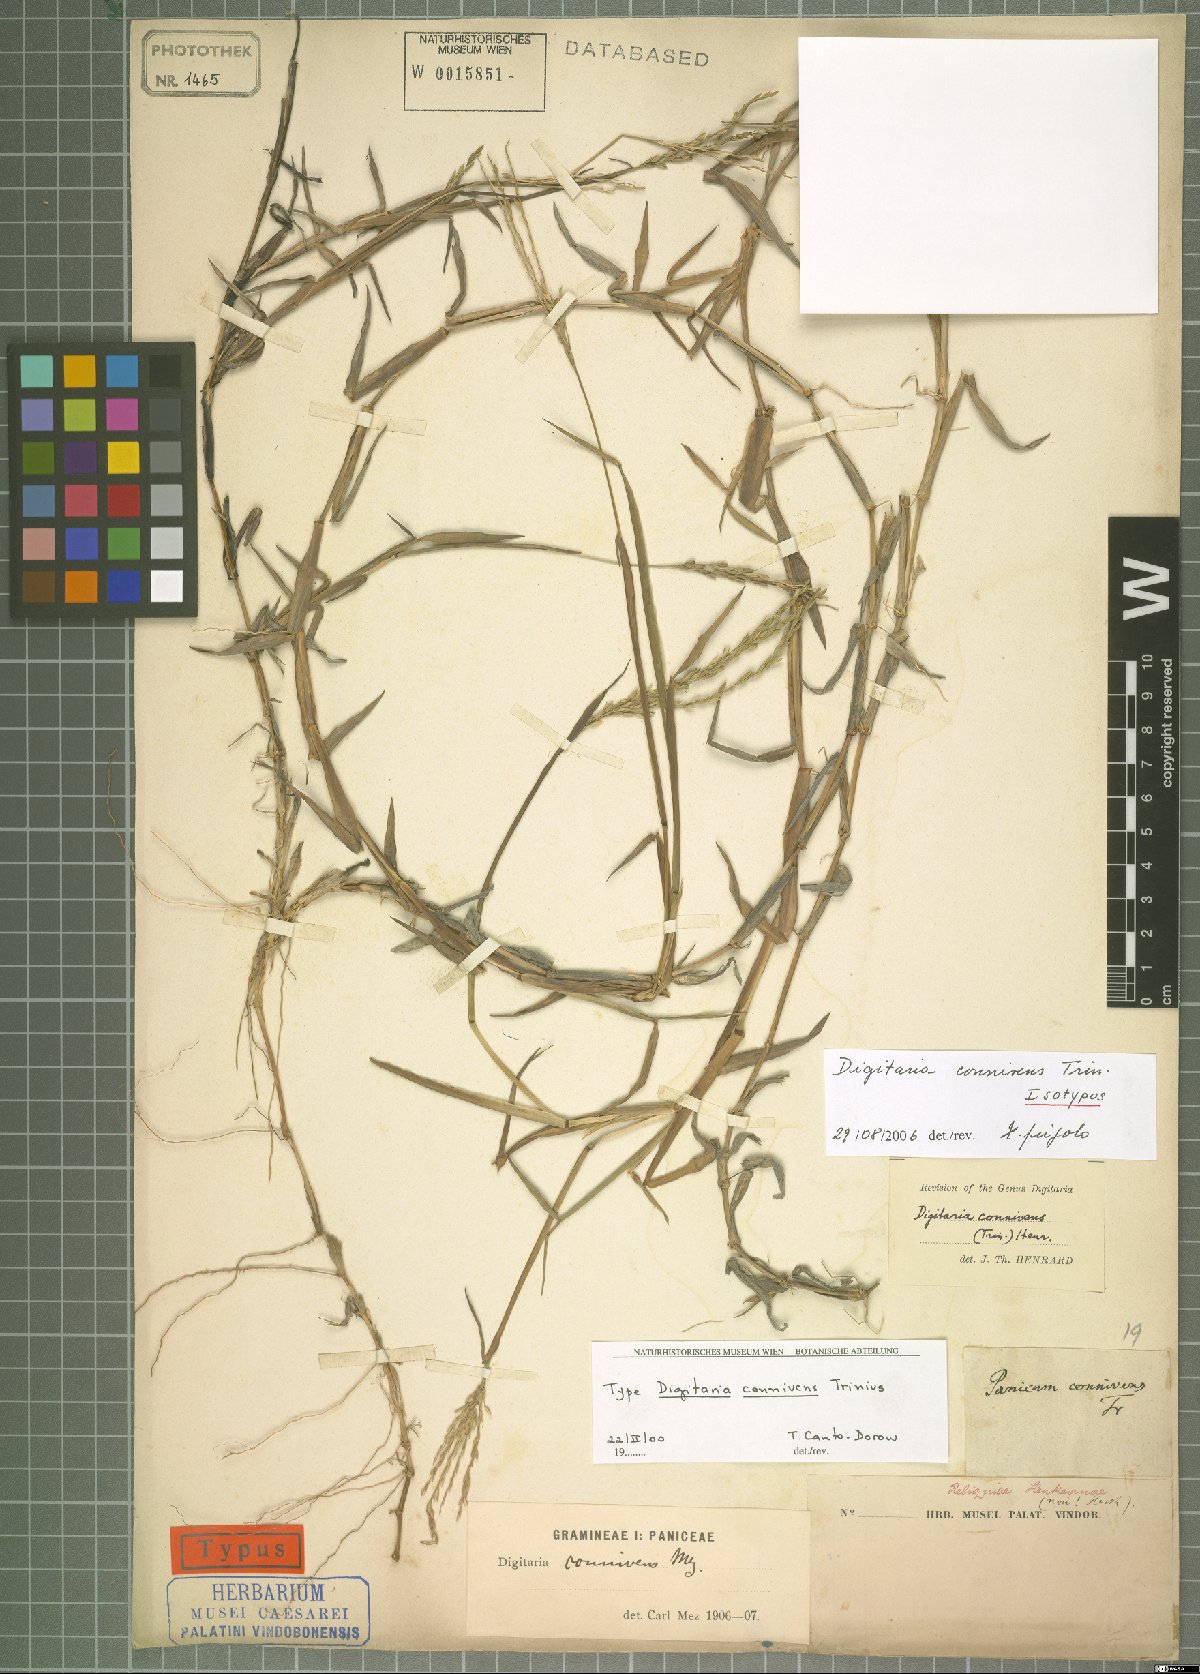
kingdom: Plantae
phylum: Tracheophyta
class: Liliopsida
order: Poales
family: Poaceae
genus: Digitaria
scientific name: Digitaria connivens
